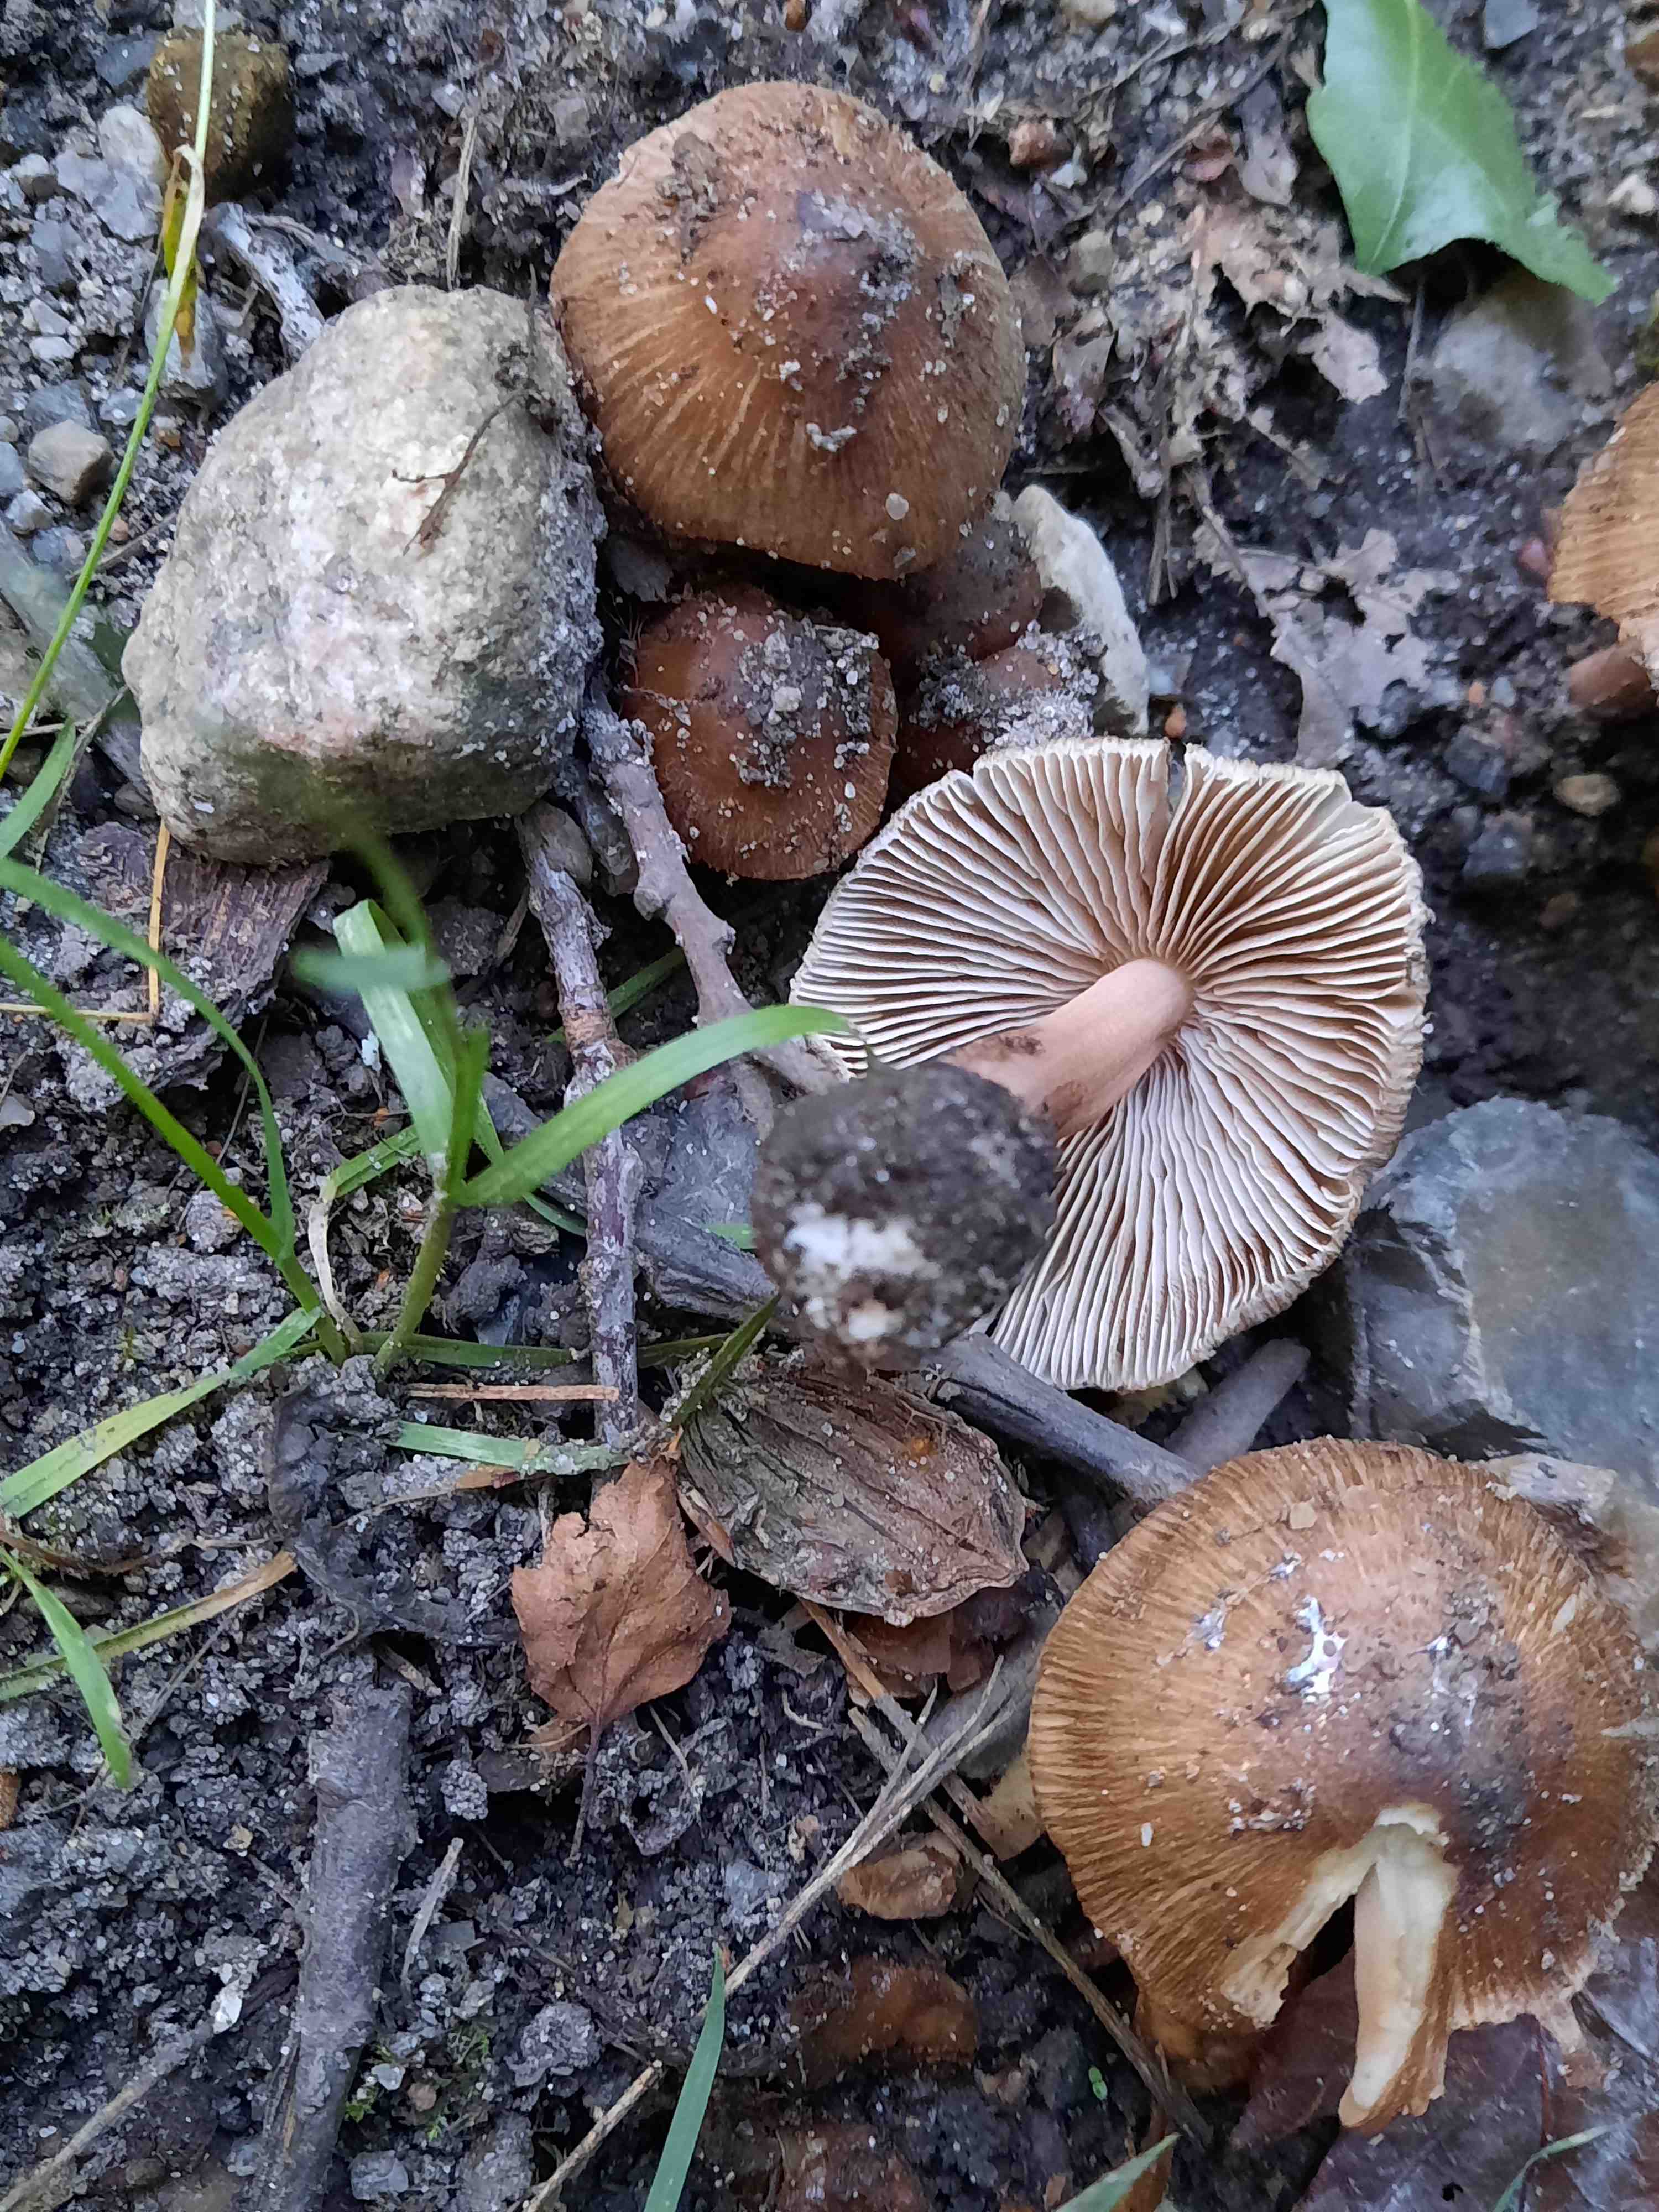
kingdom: Fungi
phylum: Basidiomycota
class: Agaricomycetes
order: Agaricales
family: Inocybaceae
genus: Inosperma
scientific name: Inosperma
